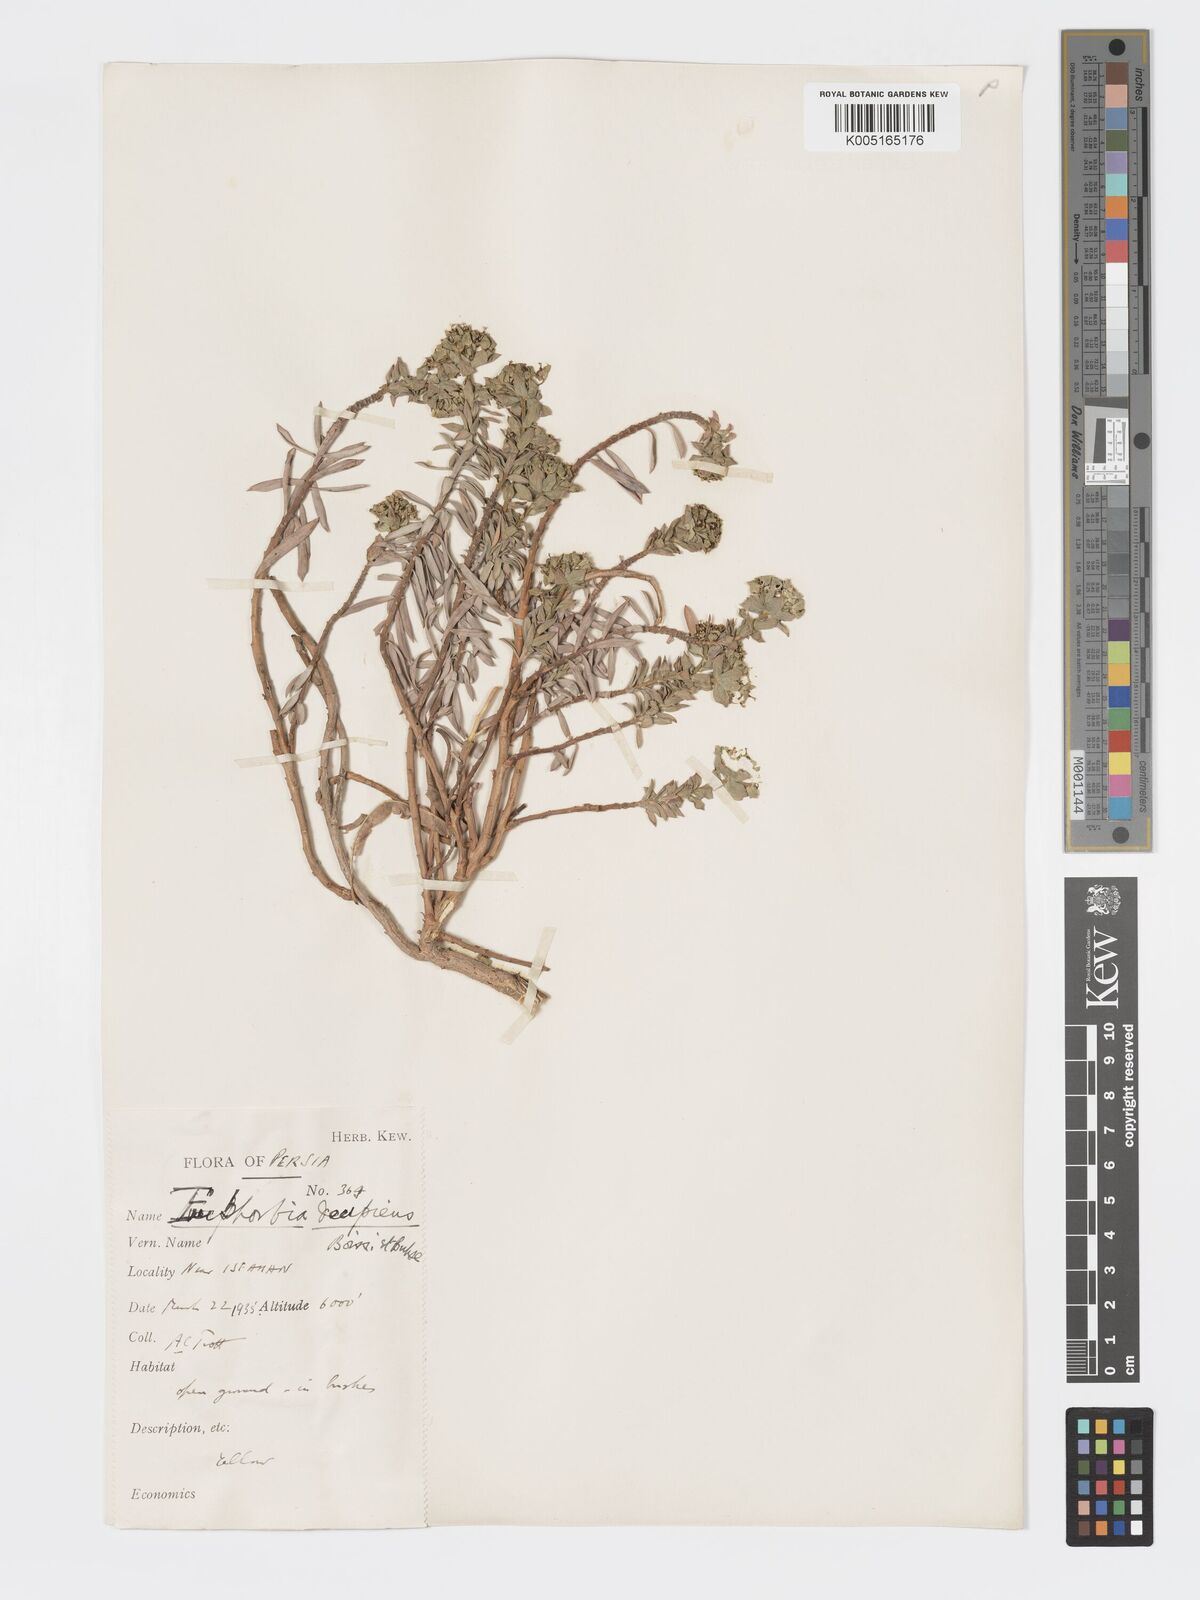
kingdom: Plantae
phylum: Tracheophyta
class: Magnoliopsida
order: Malpighiales
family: Euphorbiaceae
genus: Euphorbia
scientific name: Euphorbia polycaulis
